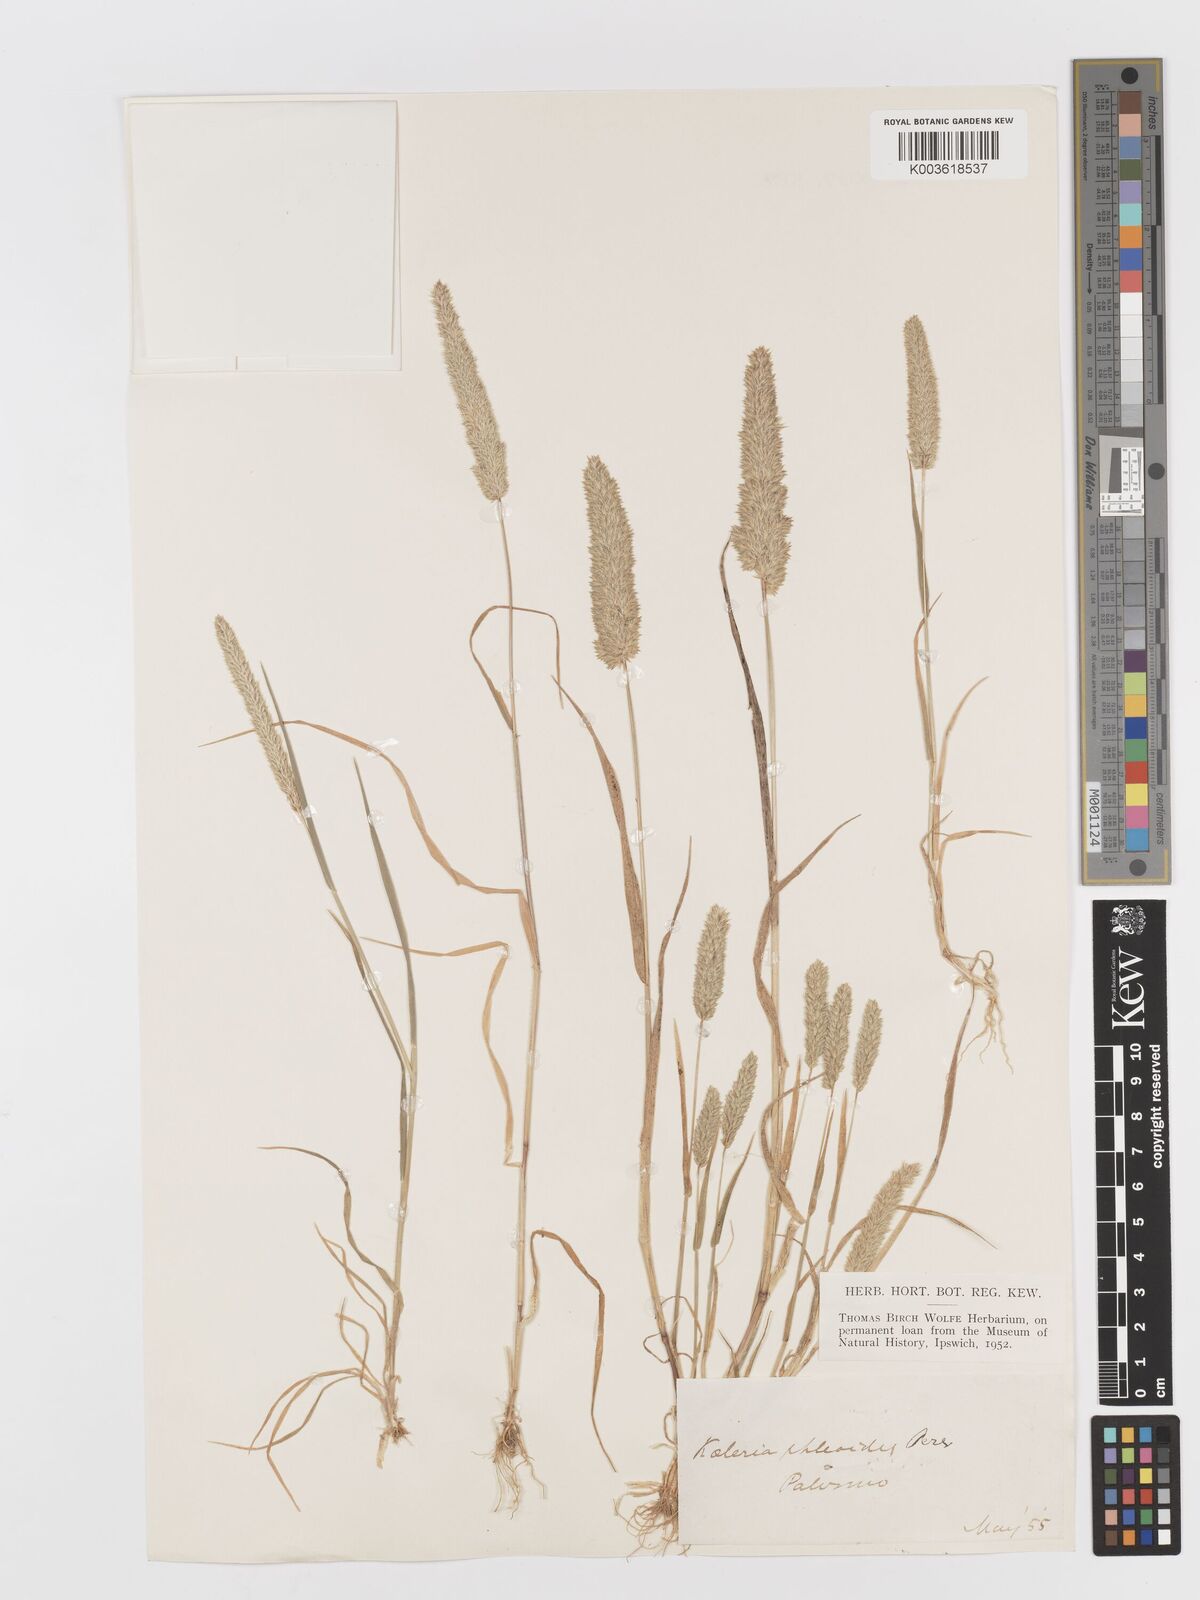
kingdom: Plantae
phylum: Tracheophyta
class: Liliopsida
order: Poales
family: Poaceae
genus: Rostraria
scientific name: Rostraria cristata
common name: Mediterranean hair-grass
